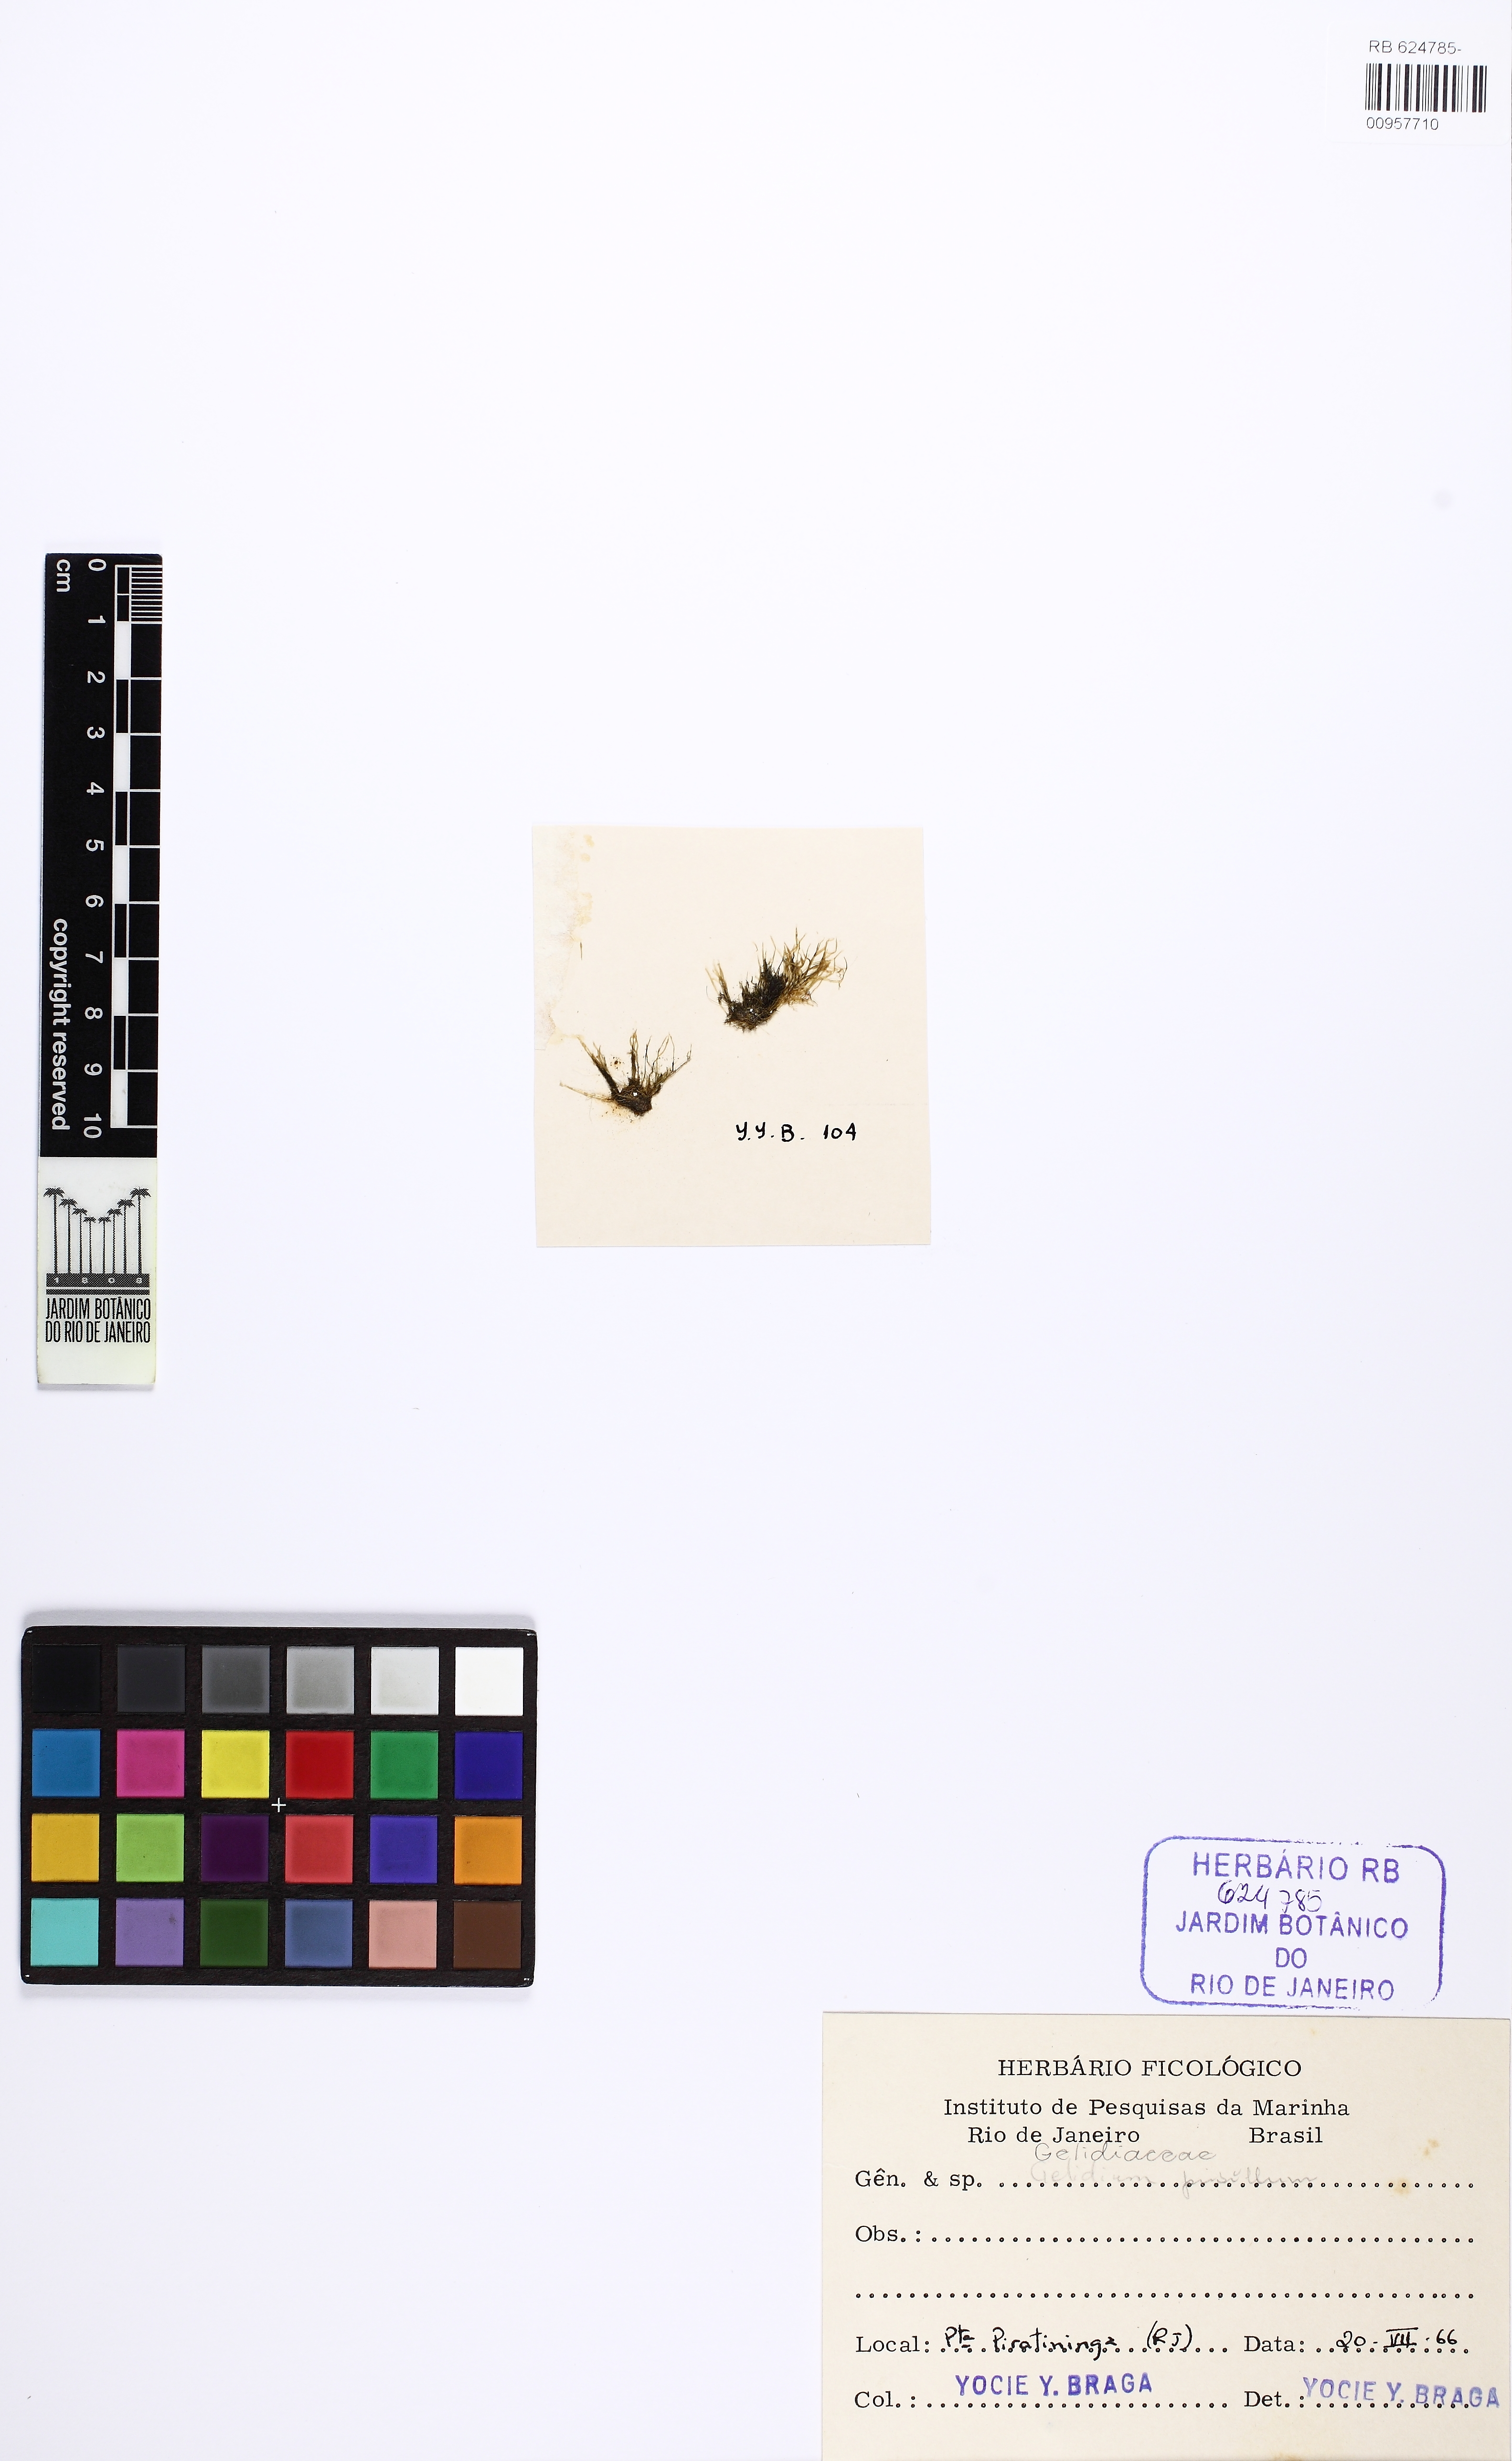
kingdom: Plantae
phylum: Rhodophyta
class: Florideophyceae
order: Gelidiales
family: Gelidiaceae
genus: Gelidium
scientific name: Gelidium pusillum
